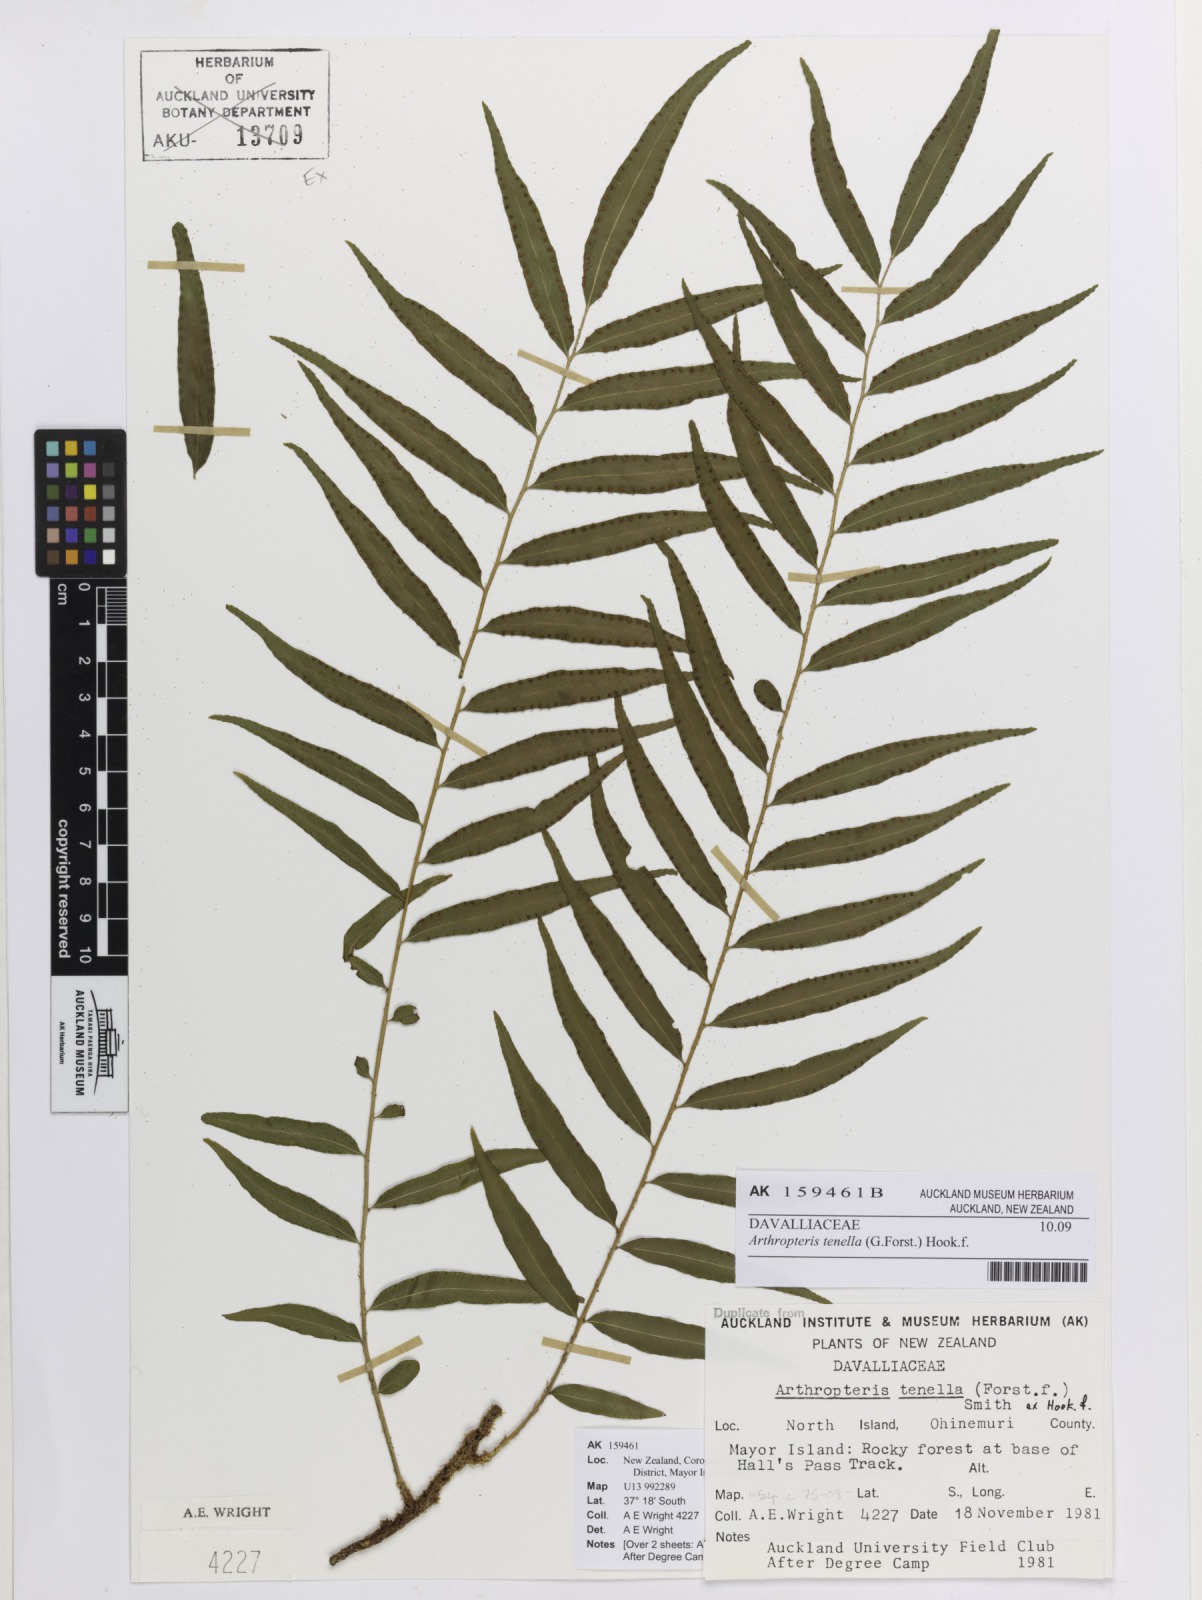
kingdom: Plantae
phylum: Tracheophyta
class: Polypodiopsida
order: Polypodiales
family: Tectariaceae
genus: Arthropteris
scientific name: Arthropteris tenella
